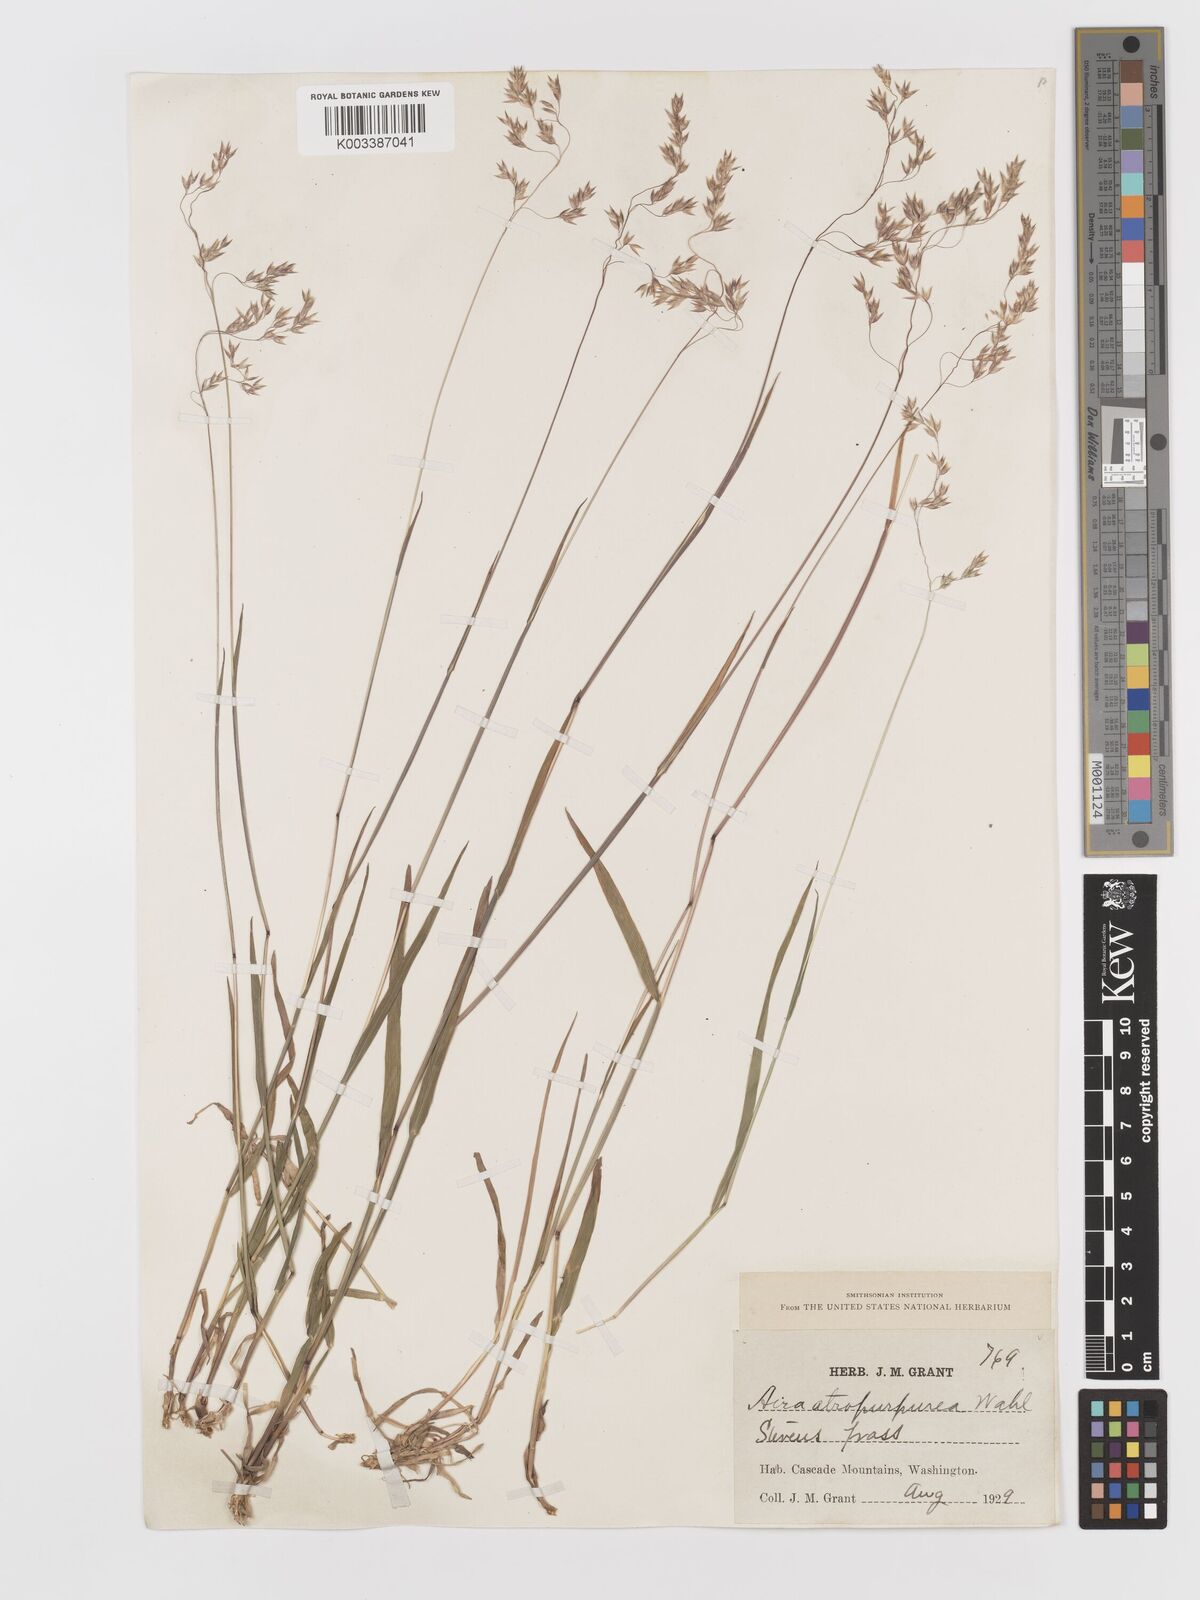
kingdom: Plantae
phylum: Tracheophyta
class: Liliopsida
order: Poales
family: Poaceae
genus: Vahlodea
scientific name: Vahlodea atropurpurea
